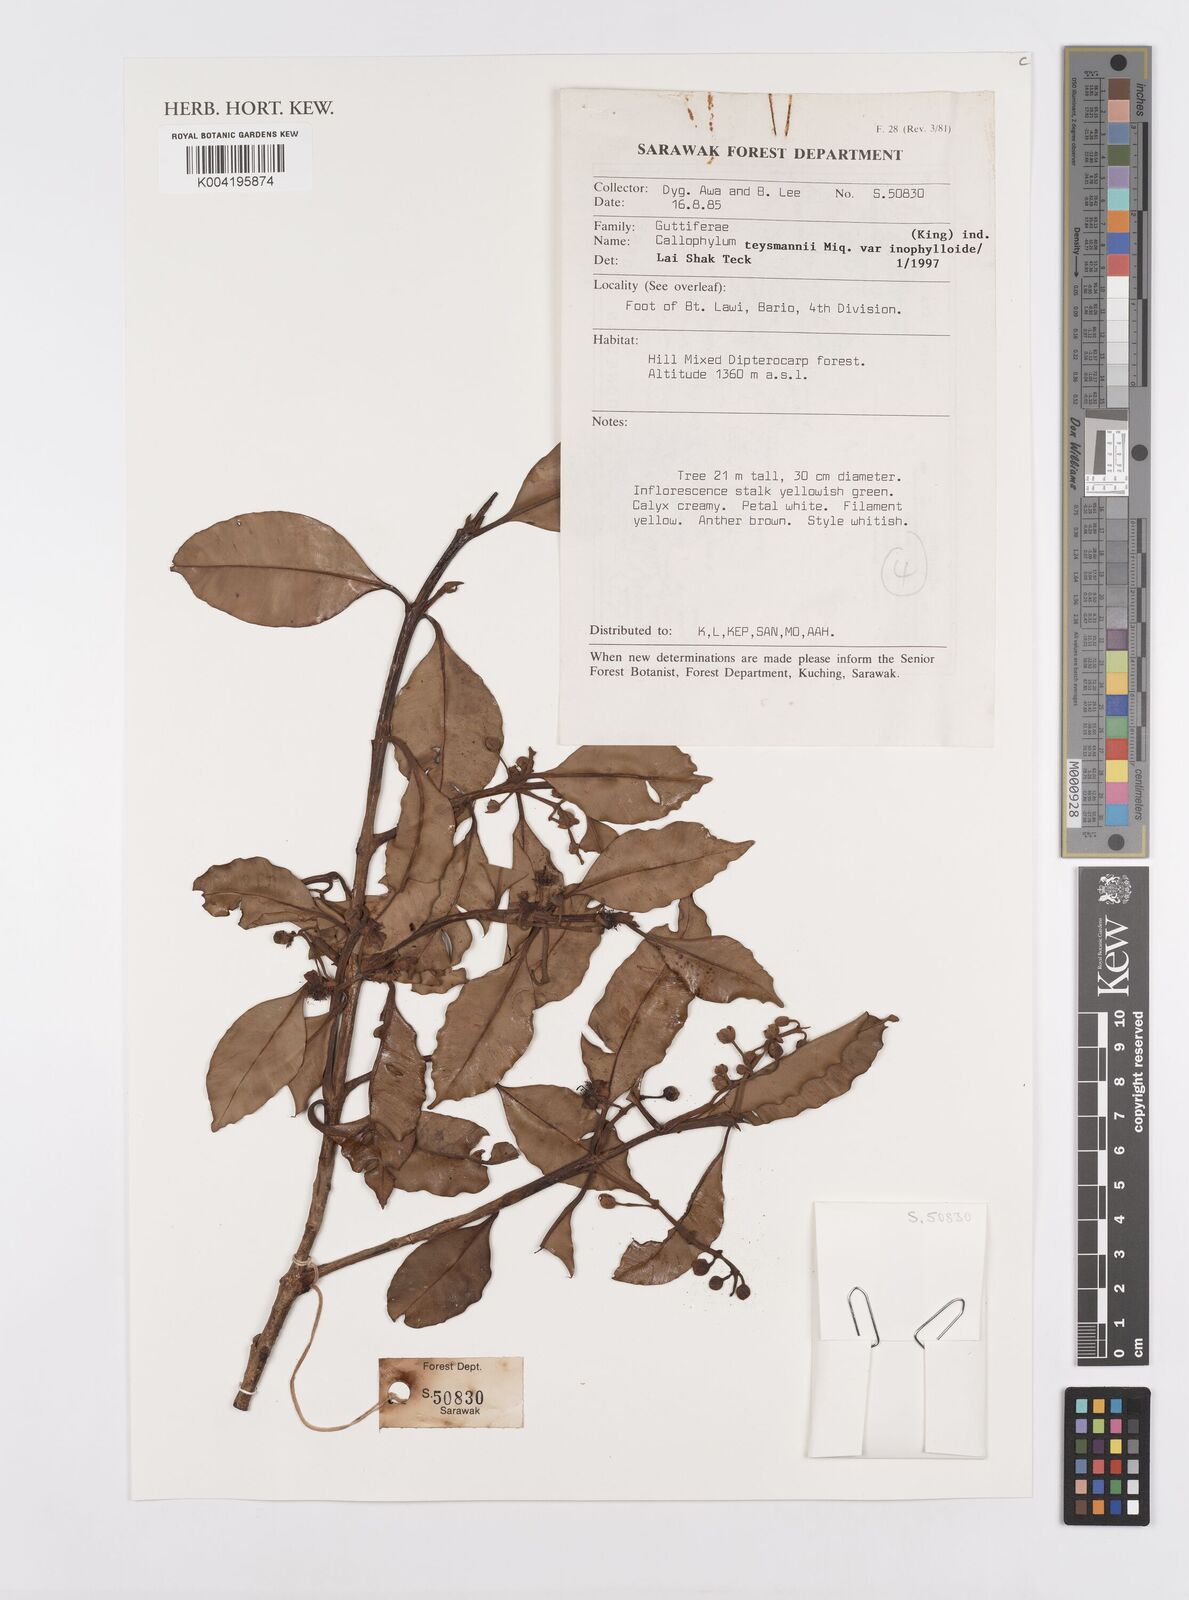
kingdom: Plantae
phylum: Tracheophyta
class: Magnoliopsida
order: Malpighiales
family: Calophyllaceae
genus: Calophyllum
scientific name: Calophyllum teysmannii
